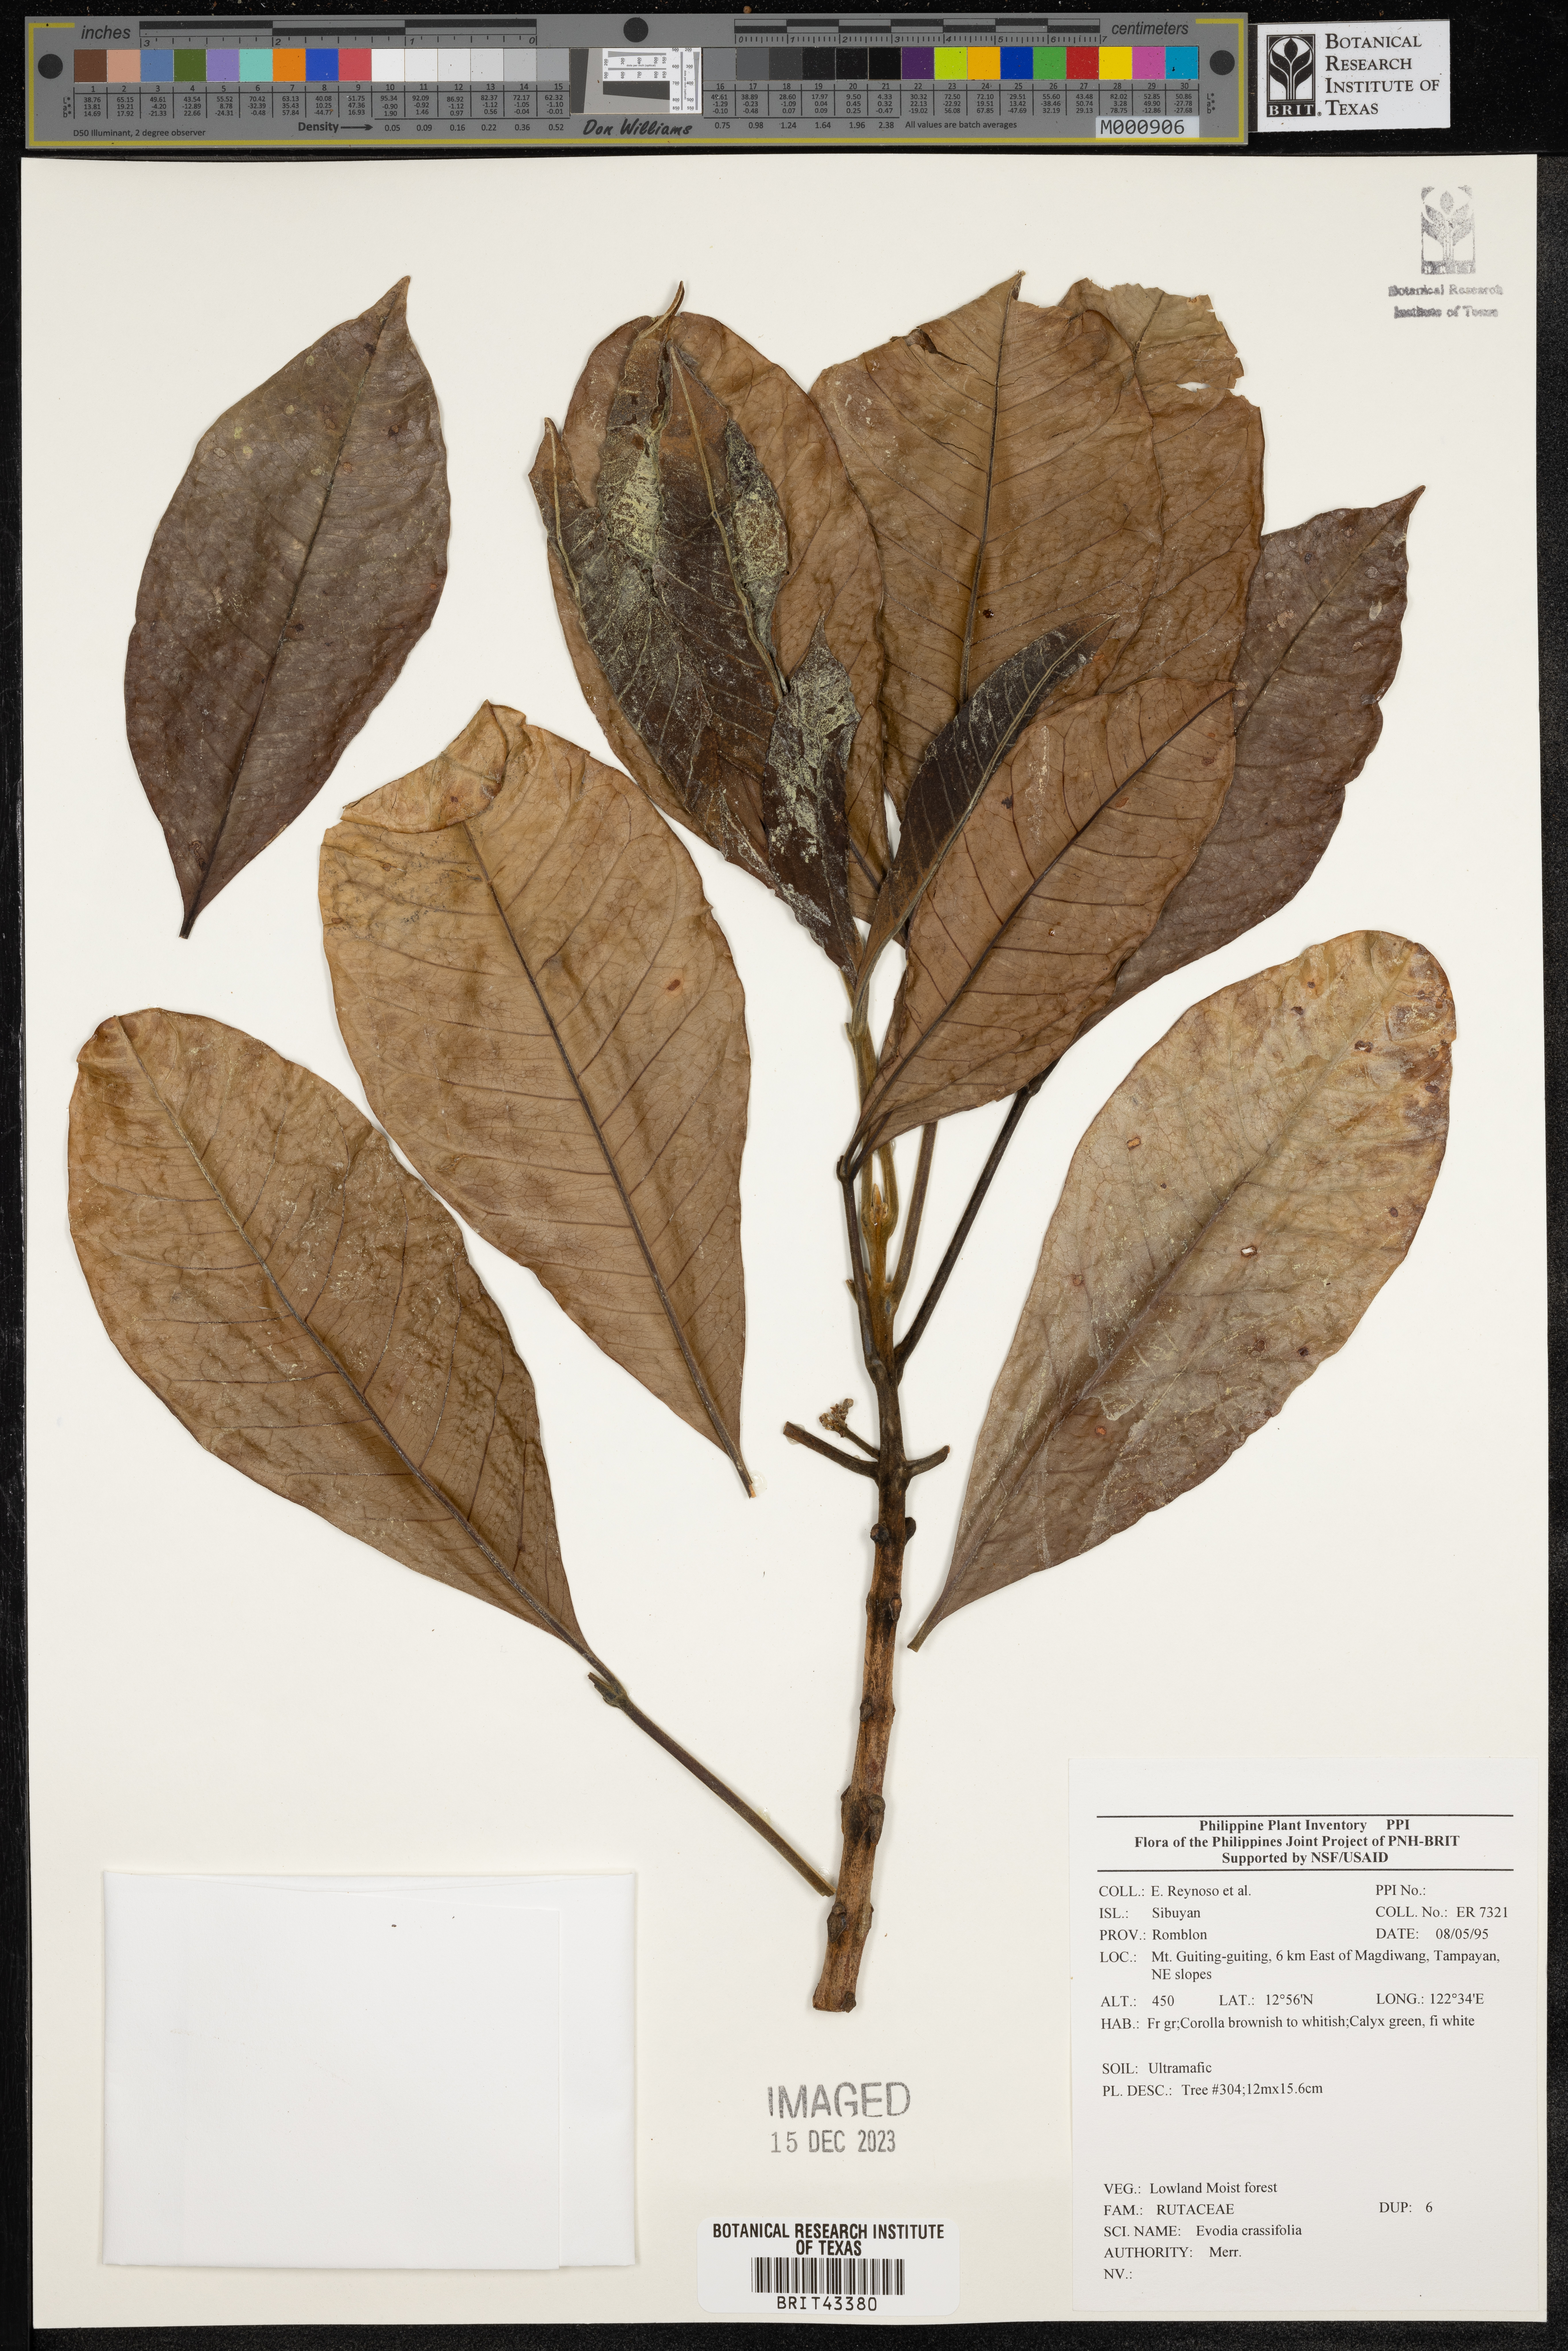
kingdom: Plantae
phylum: Tracheophyta
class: Magnoliopsida
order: Sapindales
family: Rutaceae
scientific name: Rutaceae
